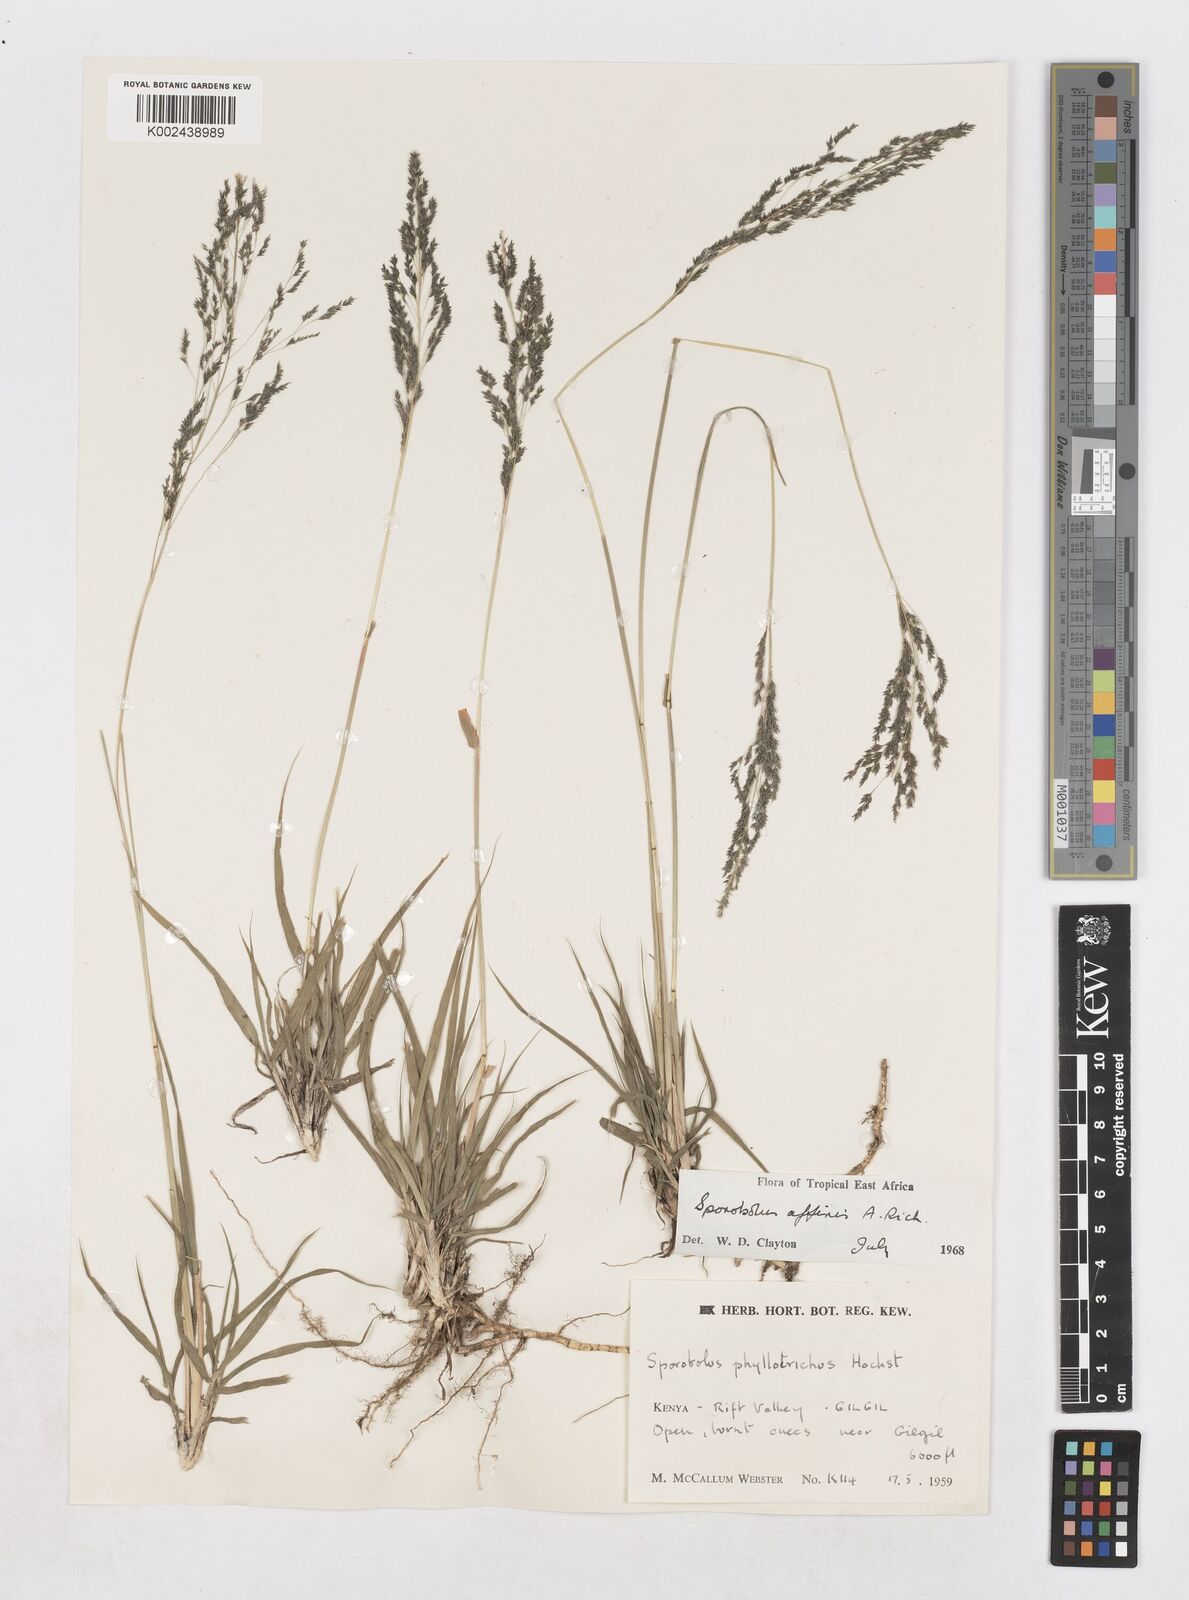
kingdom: Plantae
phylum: Tracheophyta
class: Liliopsida
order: Poales
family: Poaceae
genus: Sporobolus
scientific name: Sporobolus confinis
